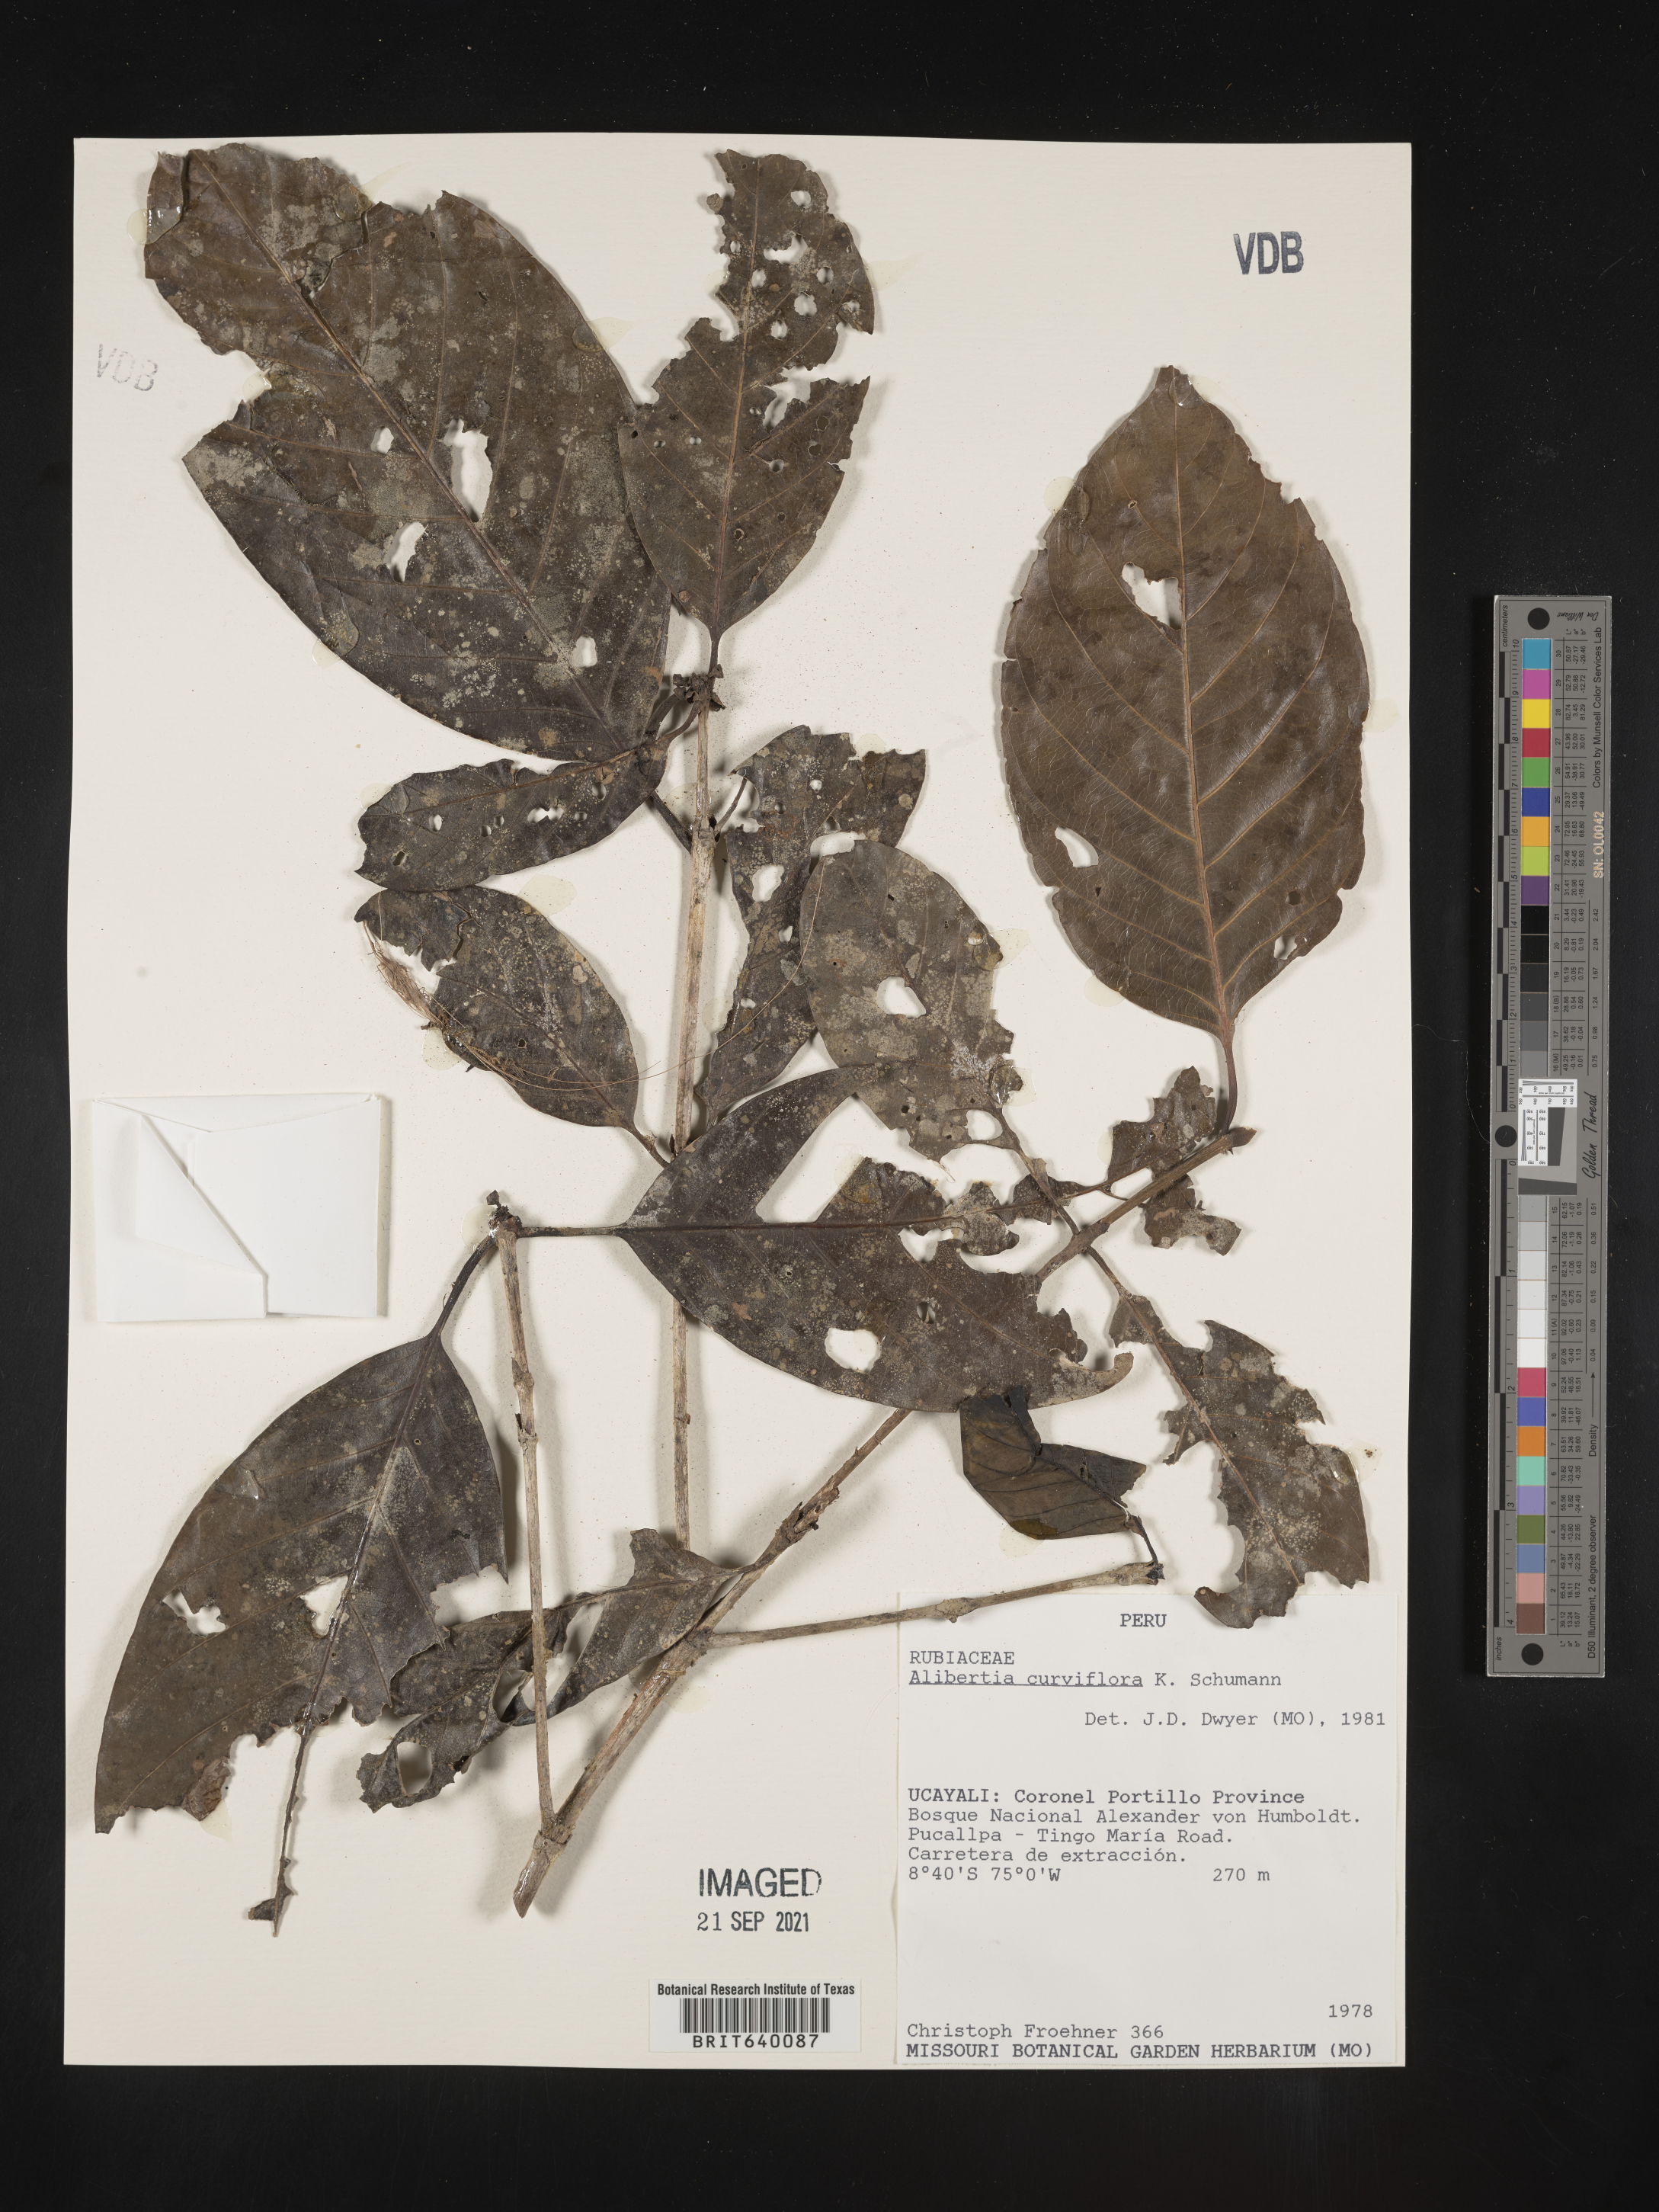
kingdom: Plantae
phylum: Tracheophyta
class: Magnoliopsida
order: Gentianales
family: Rubiaceae
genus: Alibertia
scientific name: Alibertia
